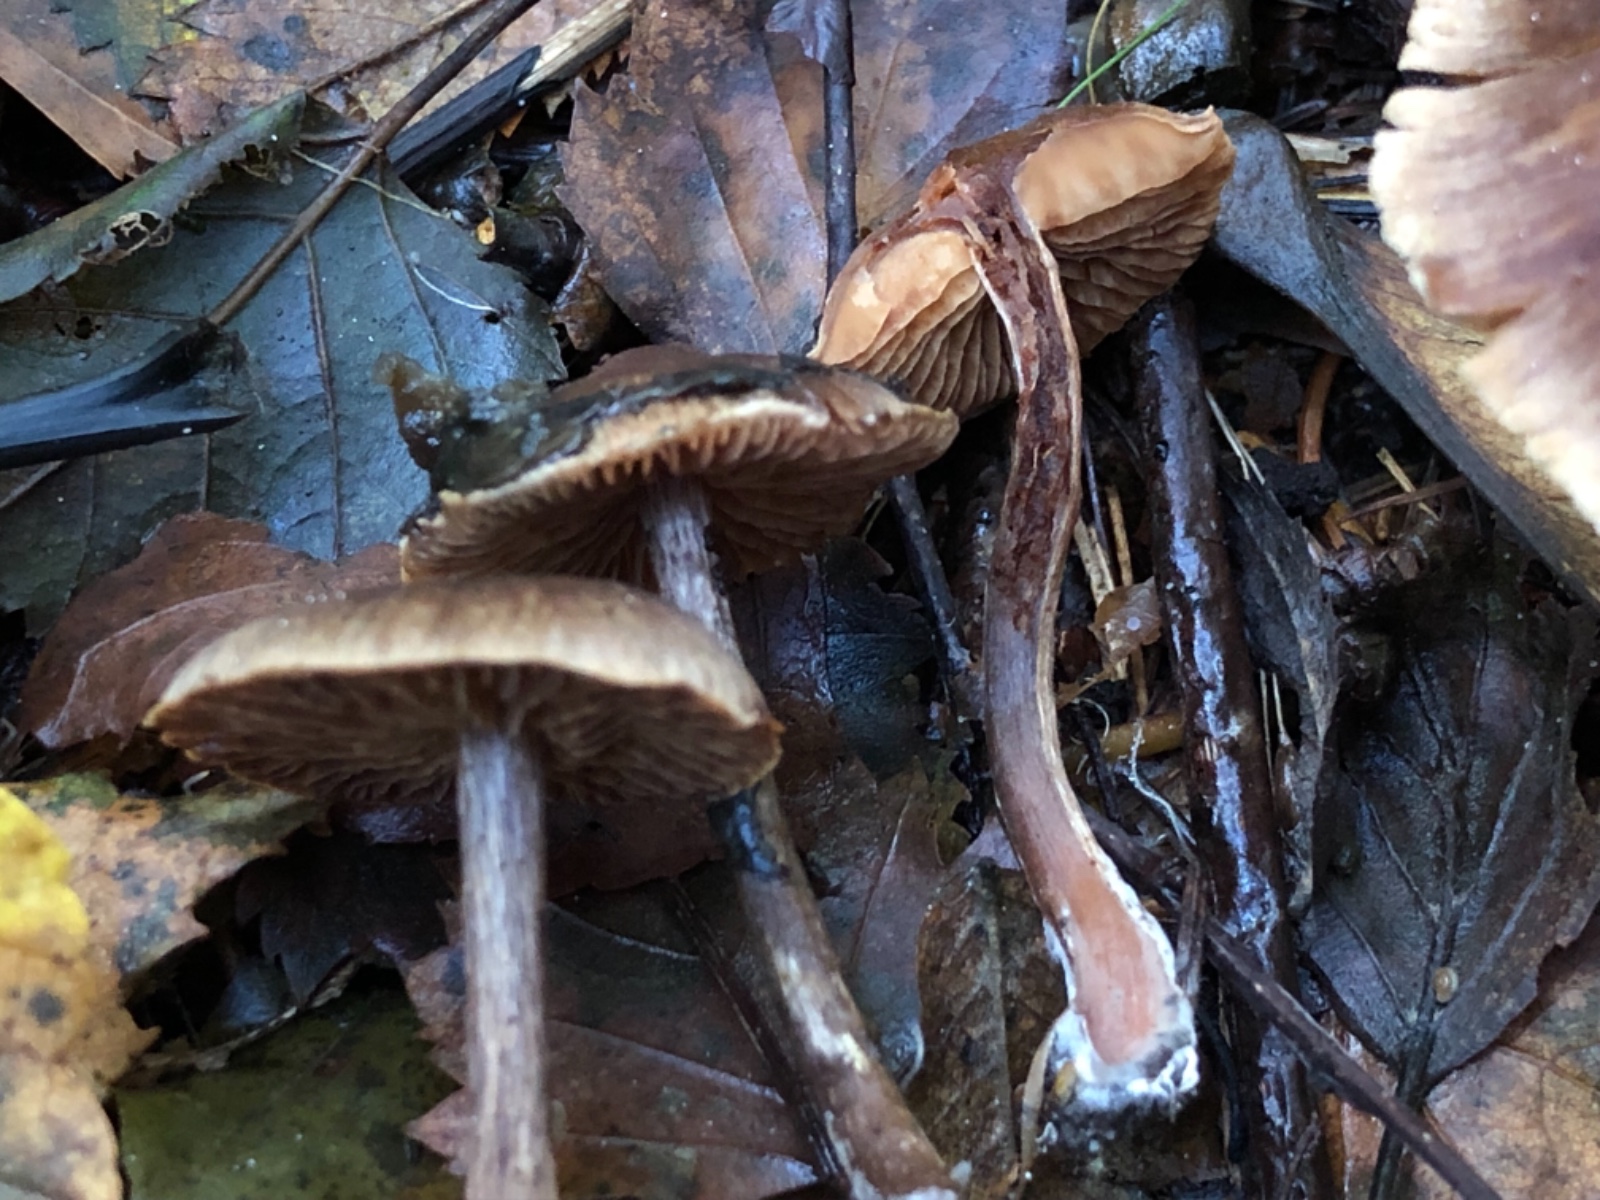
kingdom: Fungi
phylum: Basidiomycota
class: Agaricomycetes
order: Agaricales
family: Cortinariaceae
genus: Cortinarius
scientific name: Cortinarius umbrinolens
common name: mørk slørhat
